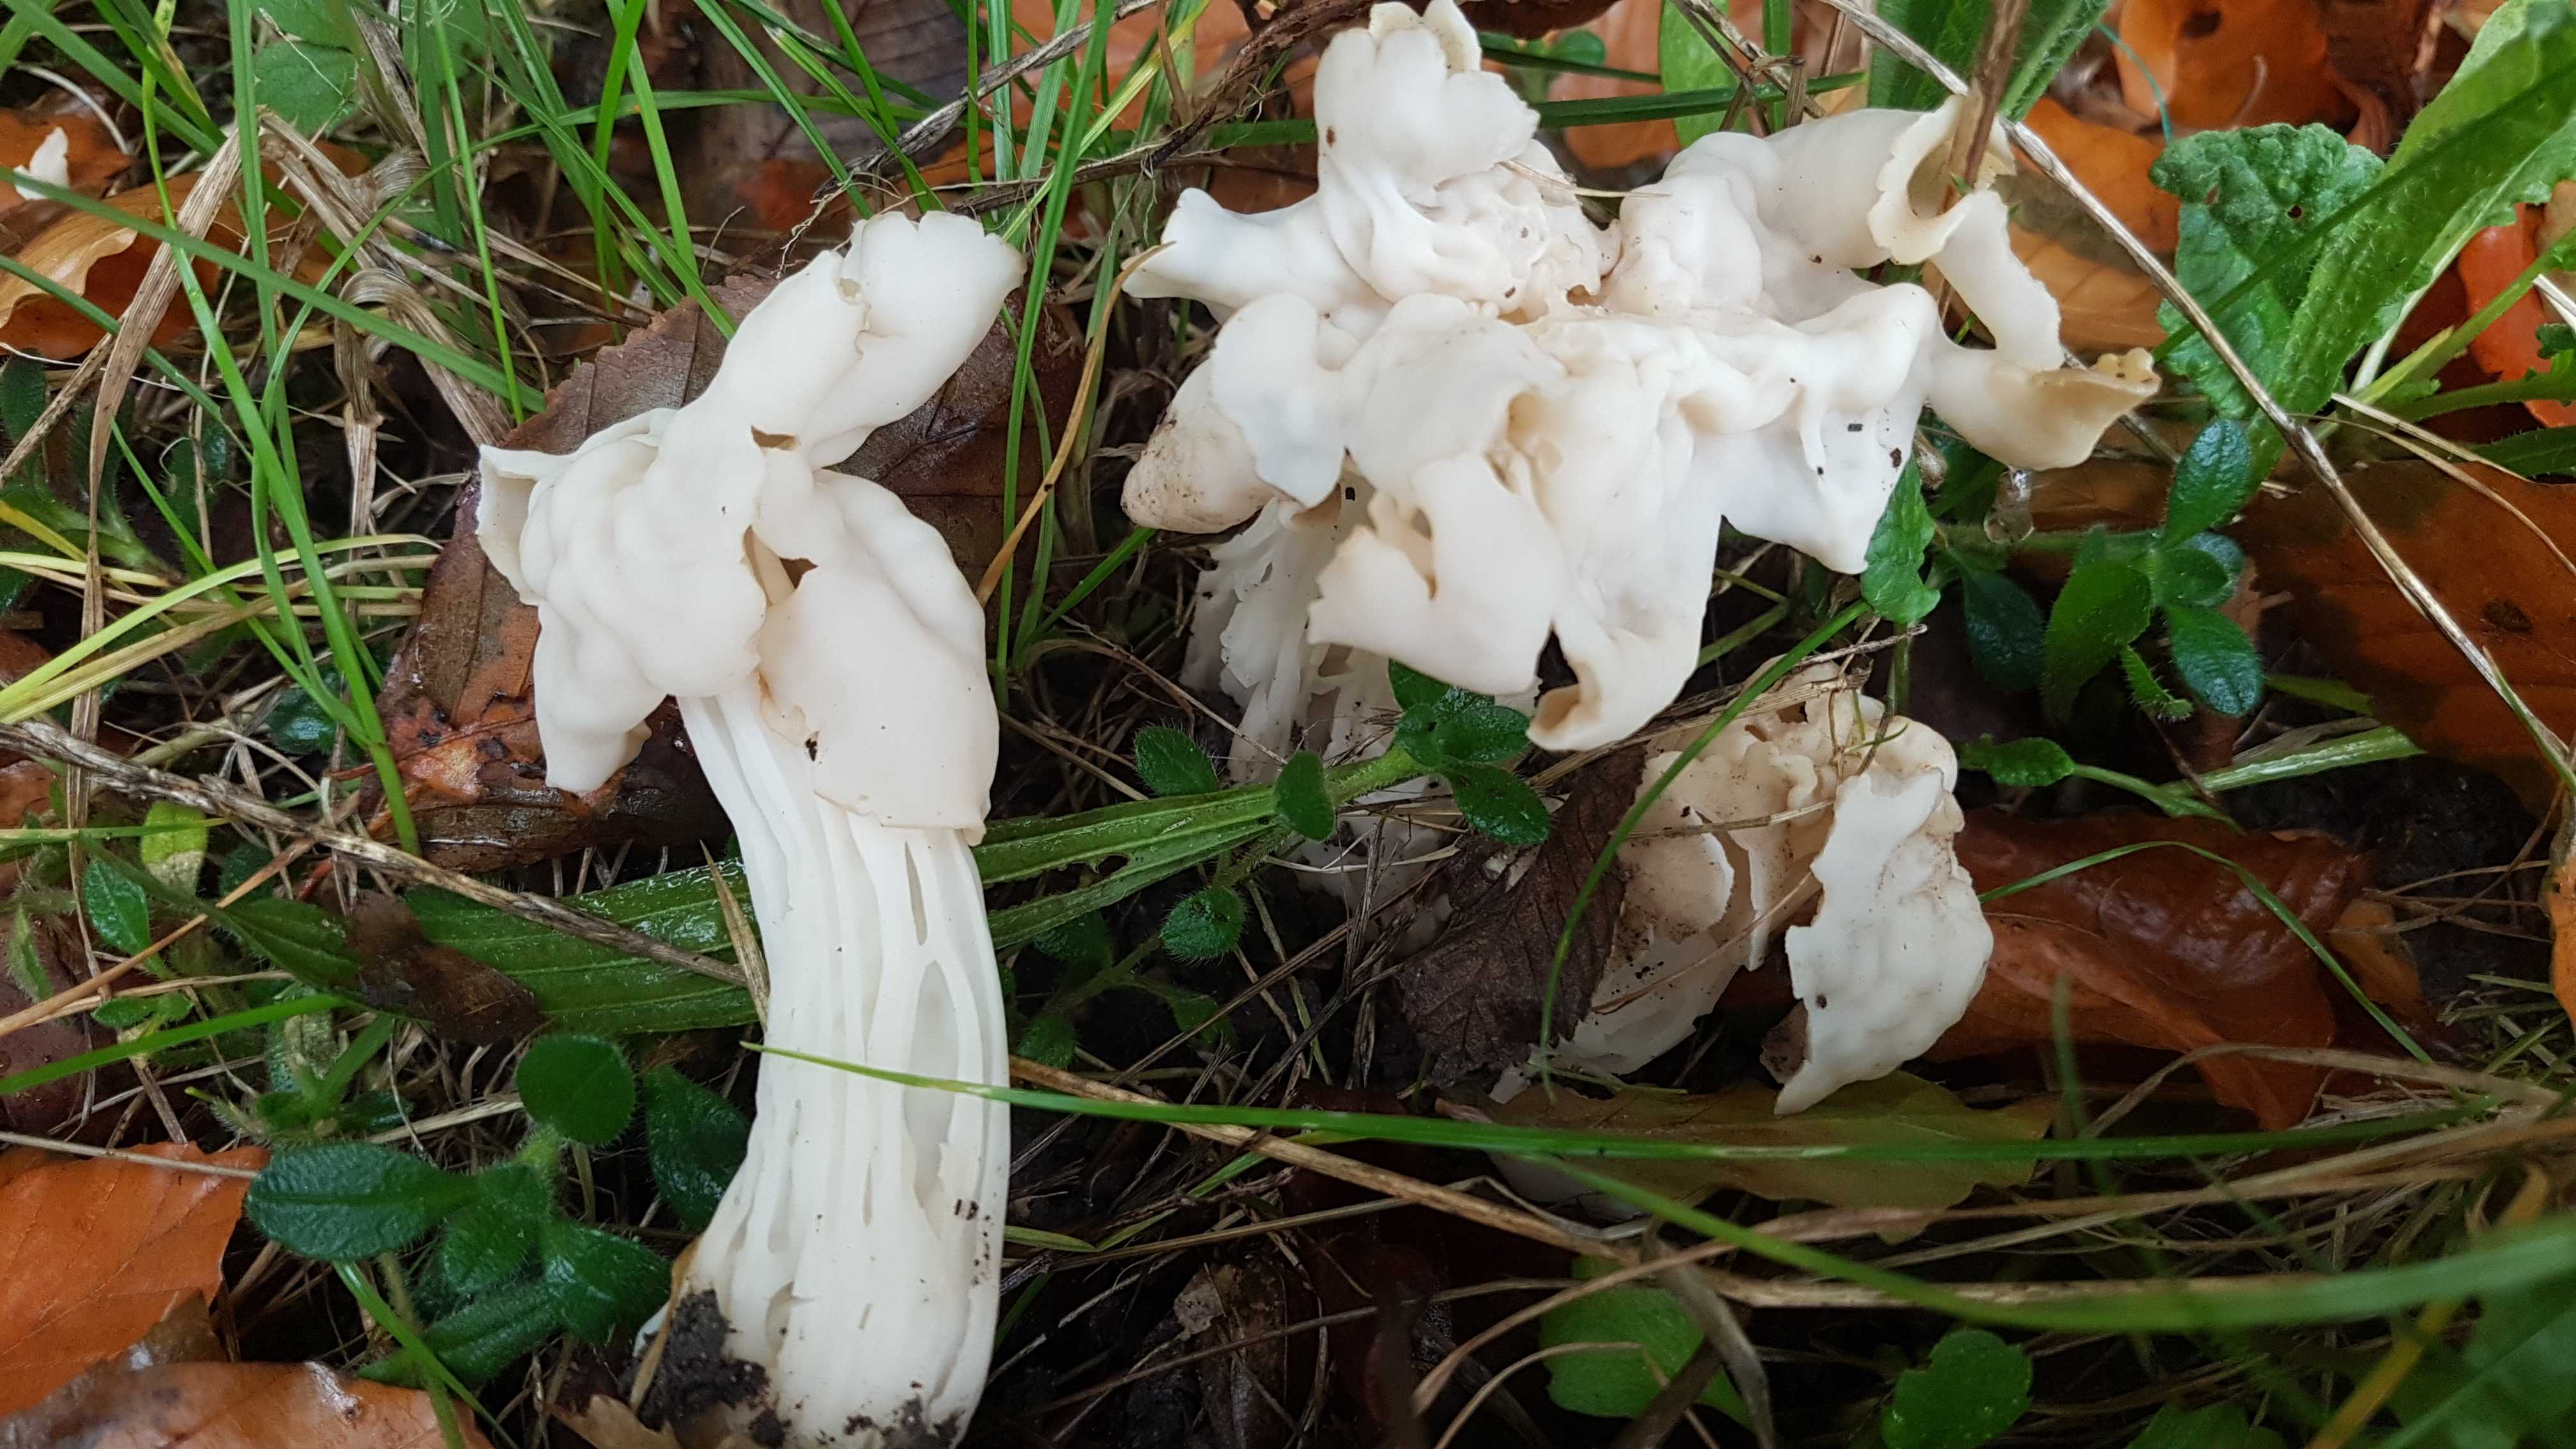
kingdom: Fungi
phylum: Ascomycota
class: Pezizomycetes
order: Pezizales
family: Helvellaceae
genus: Helvella
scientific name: Helvella crispa
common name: kruset foldhat
